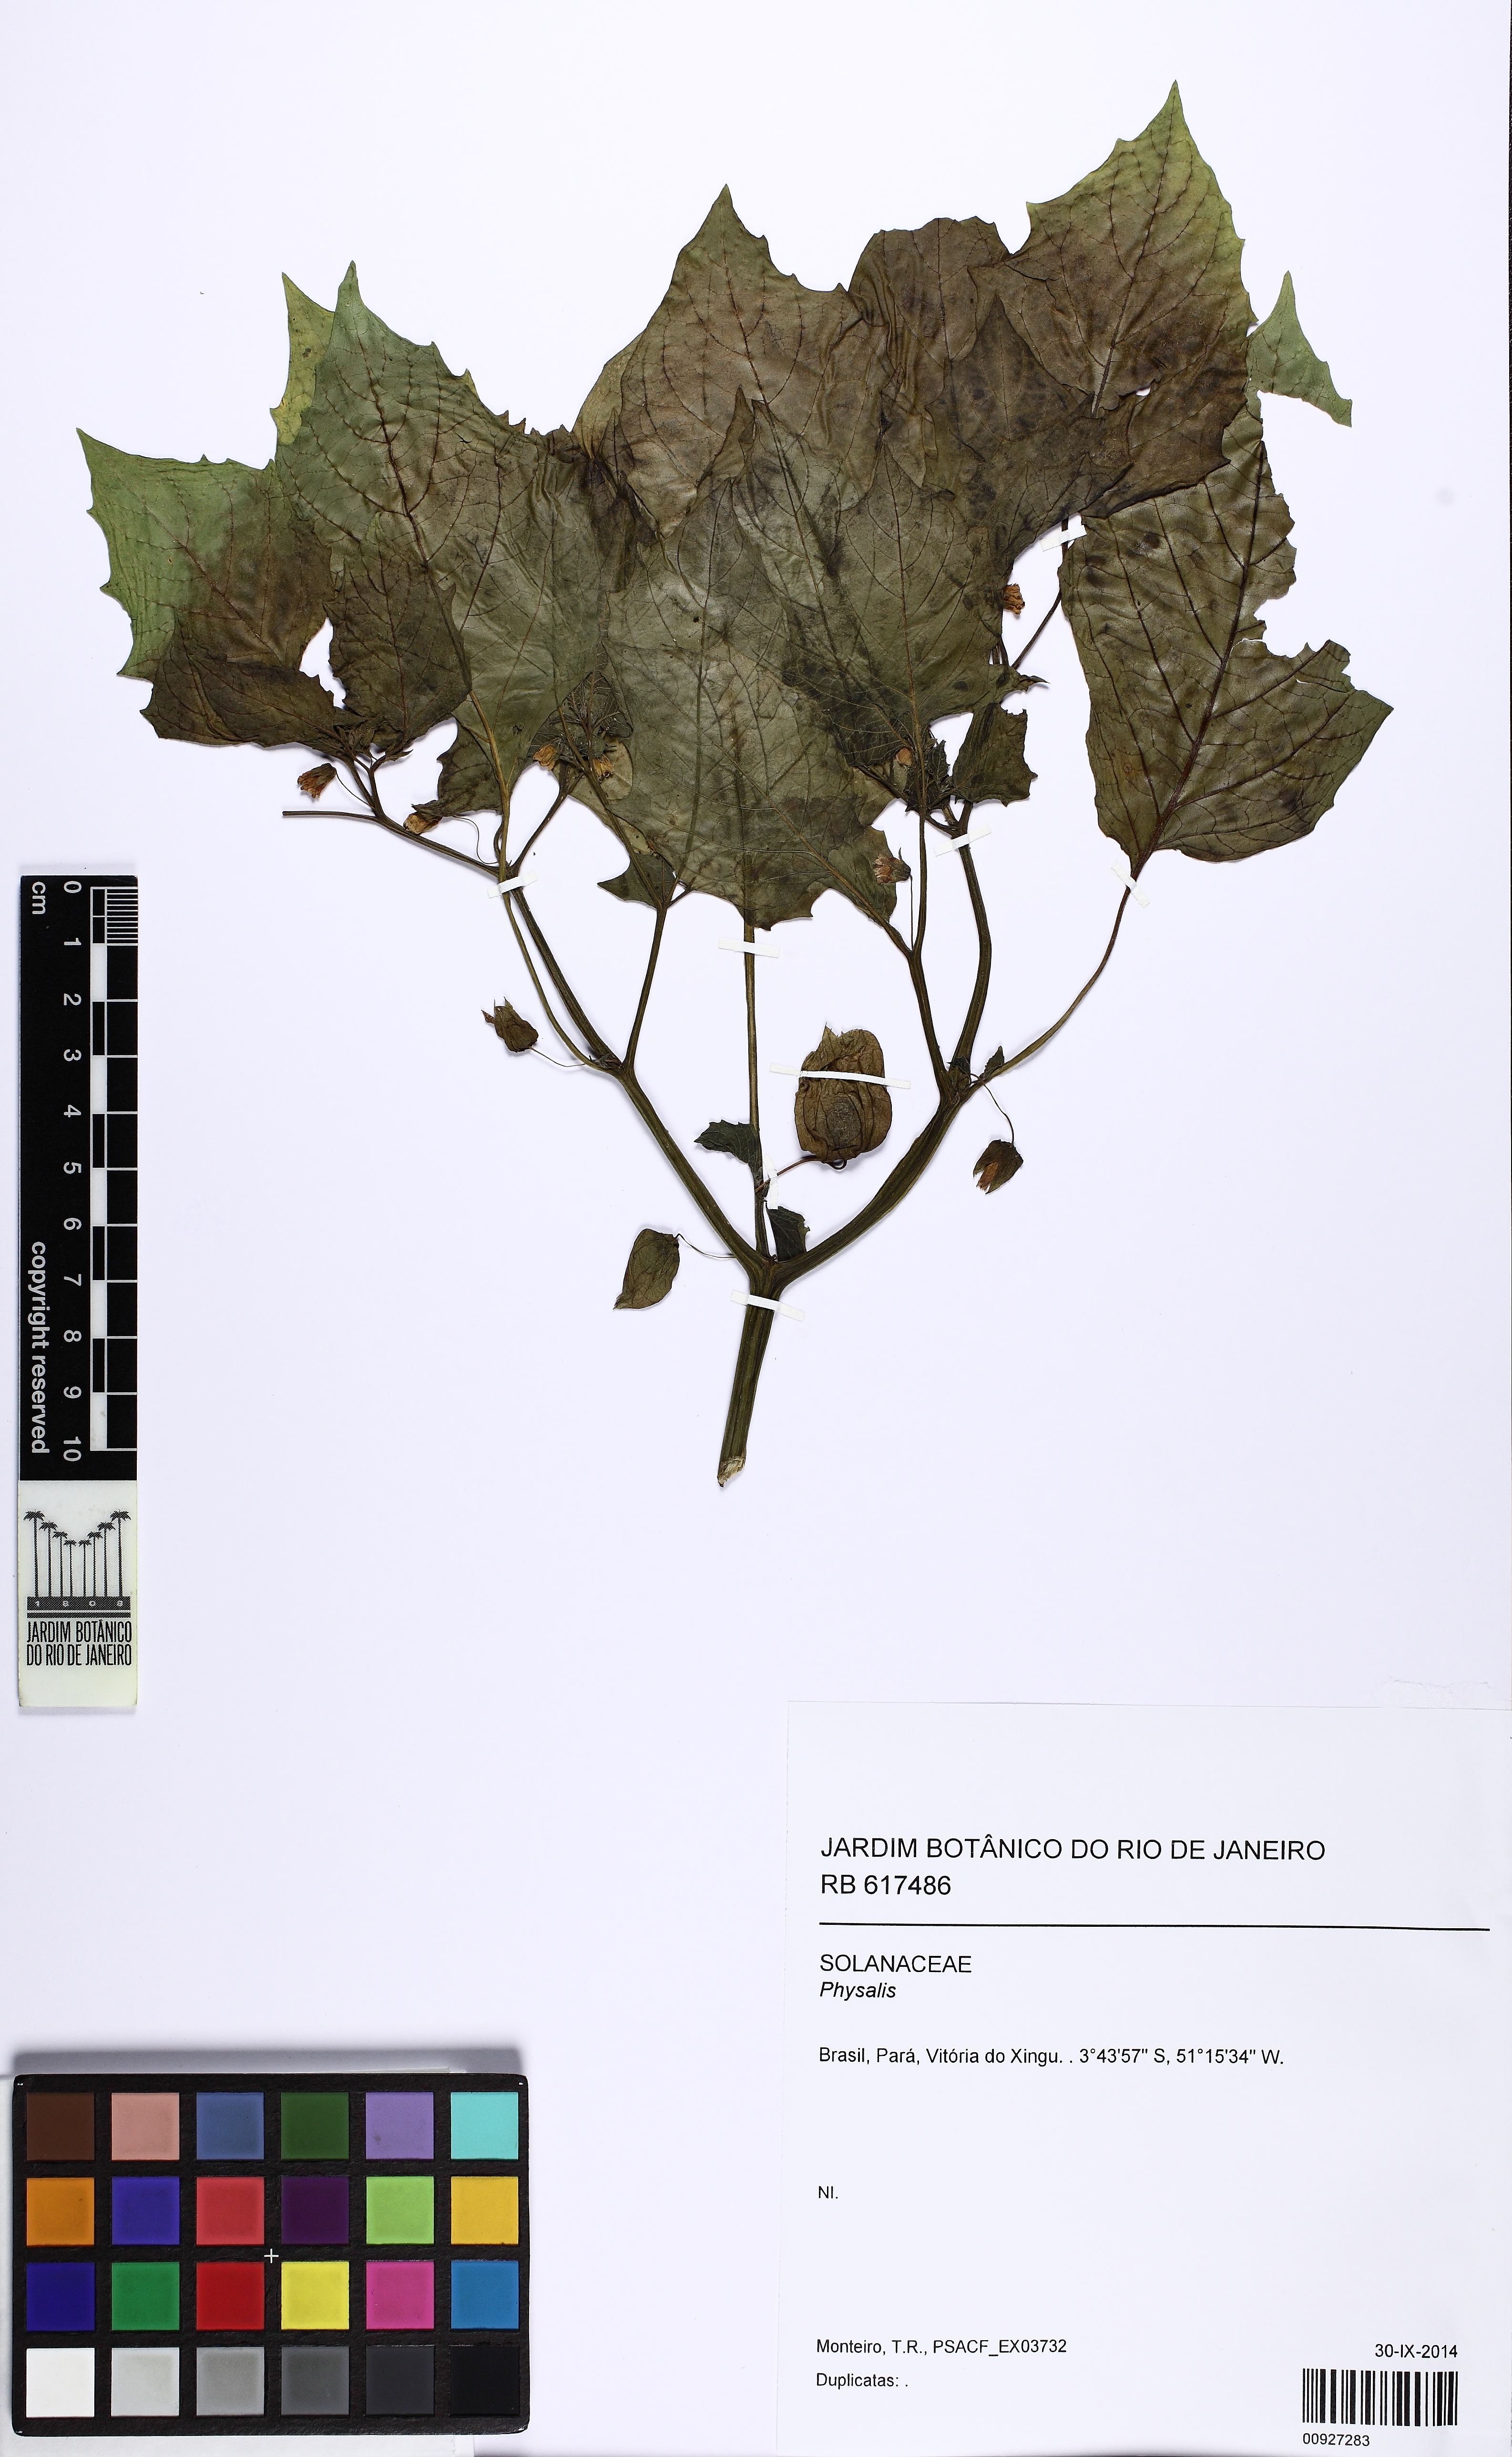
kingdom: Plantae
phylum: Tracheophyta
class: Magnoliopsida
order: Solanales
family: Solanaceae
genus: Physalis
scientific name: Physalis
